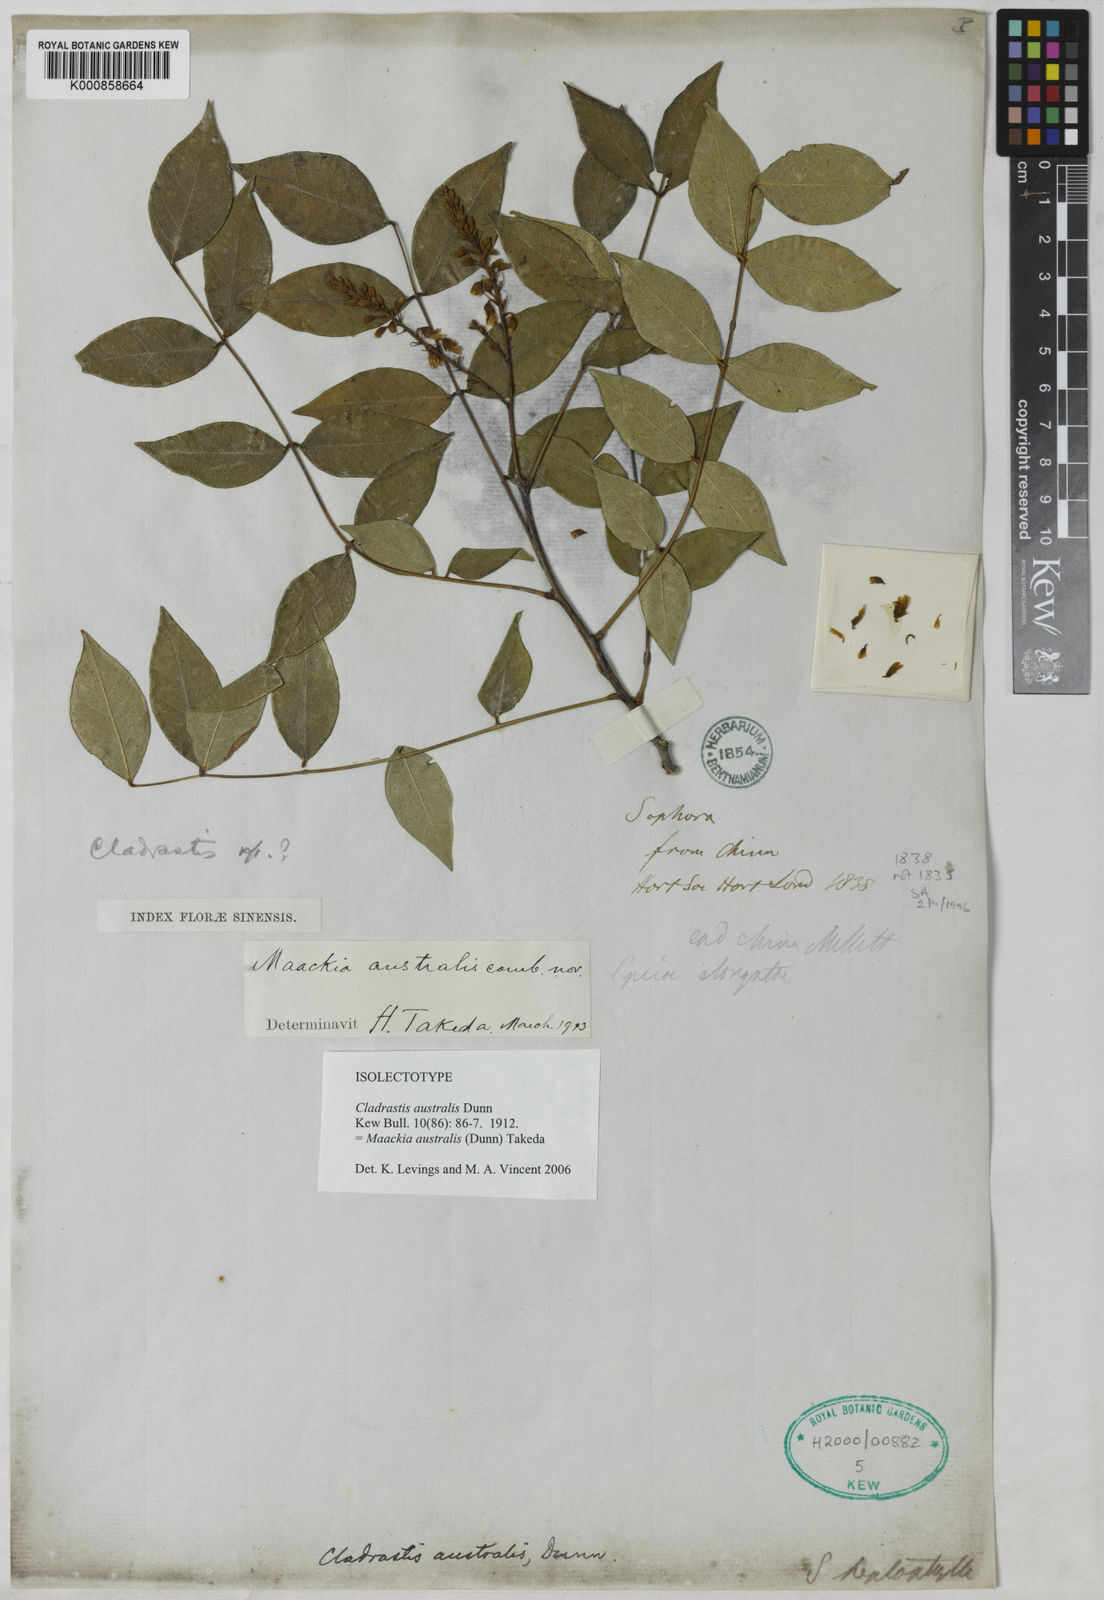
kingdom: Plantae
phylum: Tracheophyta
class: Magnoliopsida
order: Fabales
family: Fabaceae
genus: Maackia
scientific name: Maackia australis
